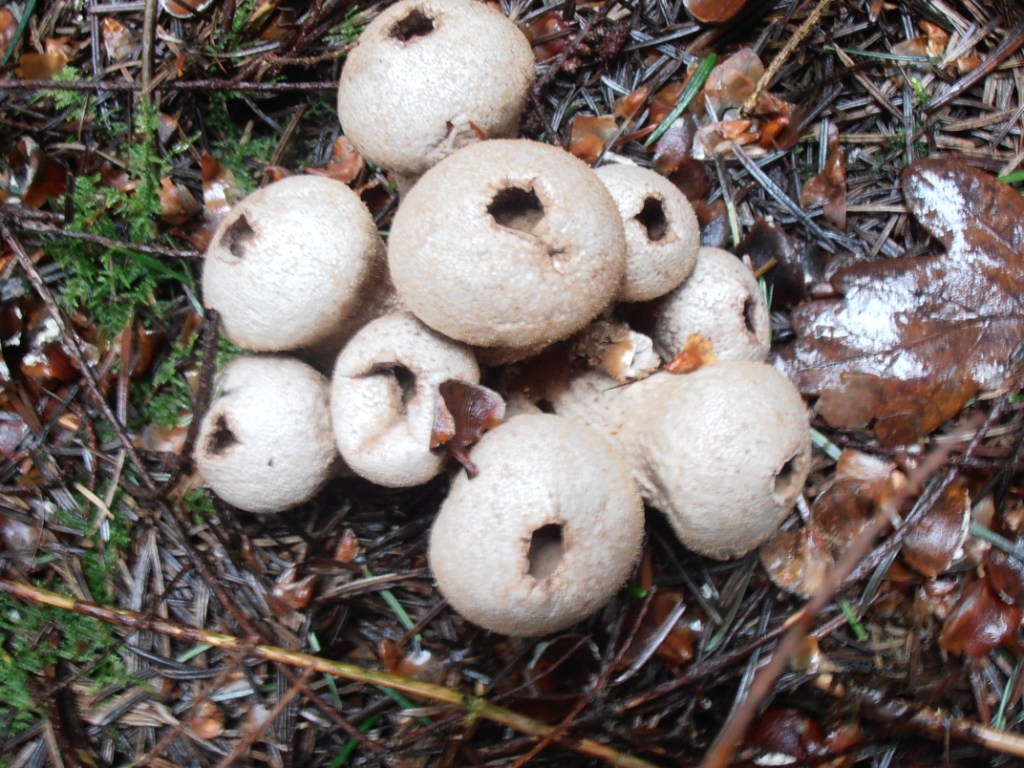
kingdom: Fungi
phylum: Basidiomycota
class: Agaricomycetes
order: Agaricales
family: Lycoperdaceae
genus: Lycoperdon
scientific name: Lycoperdon perlatum
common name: krystal-støvbold
